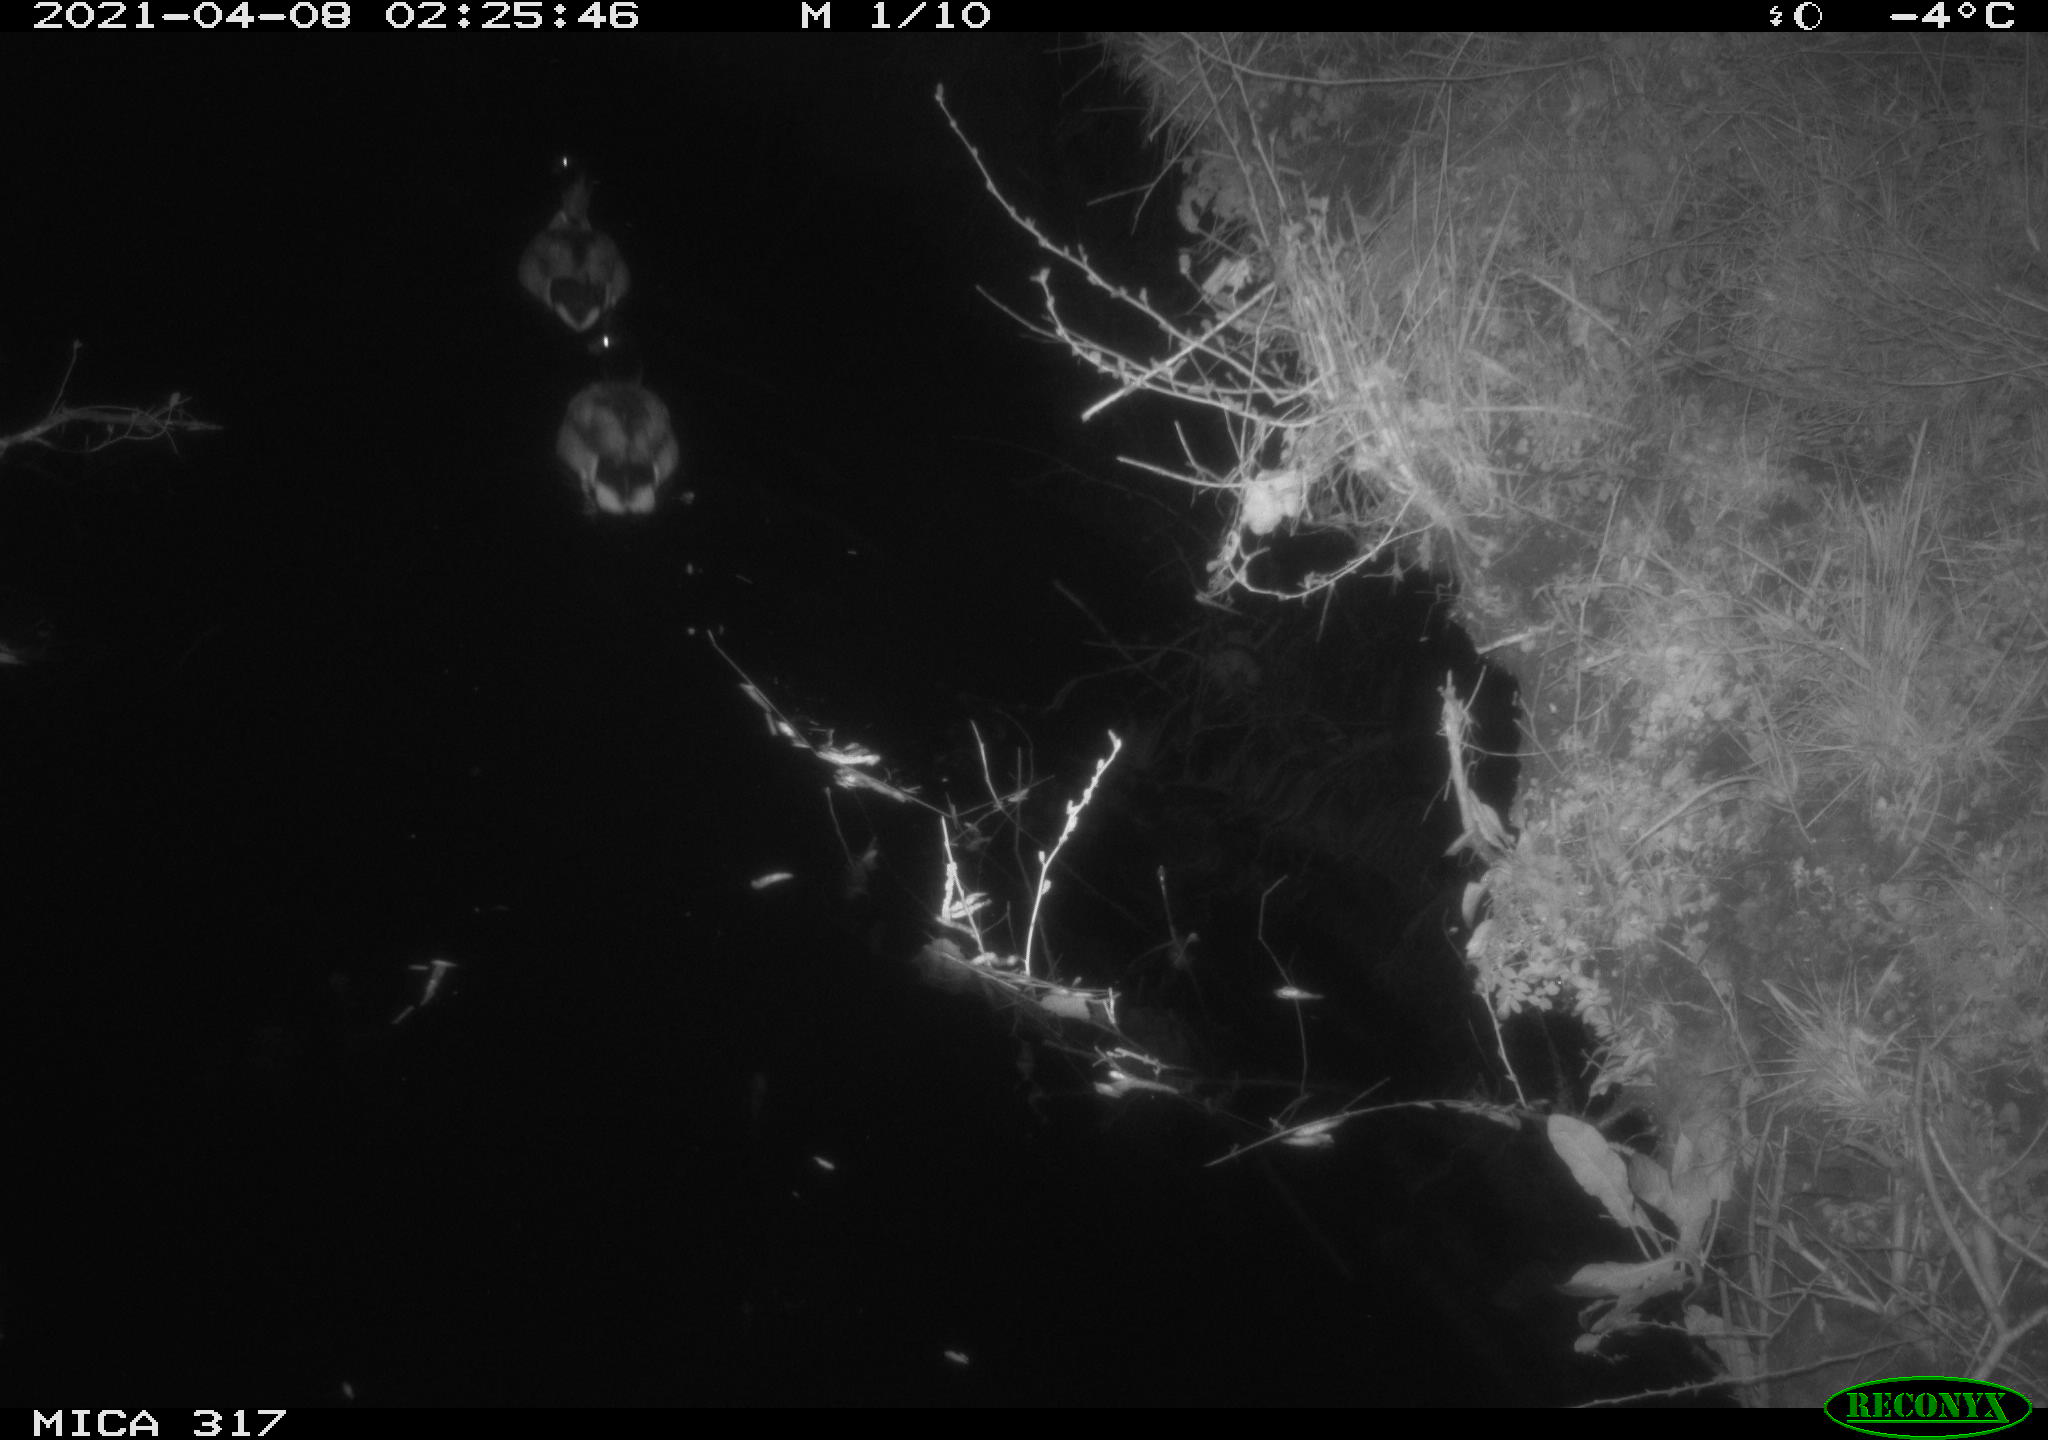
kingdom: Animalia
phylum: Chordata
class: Aves
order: Anseriformes
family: Anatidae
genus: Anas
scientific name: Anas platyrhynchos
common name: Mallard
